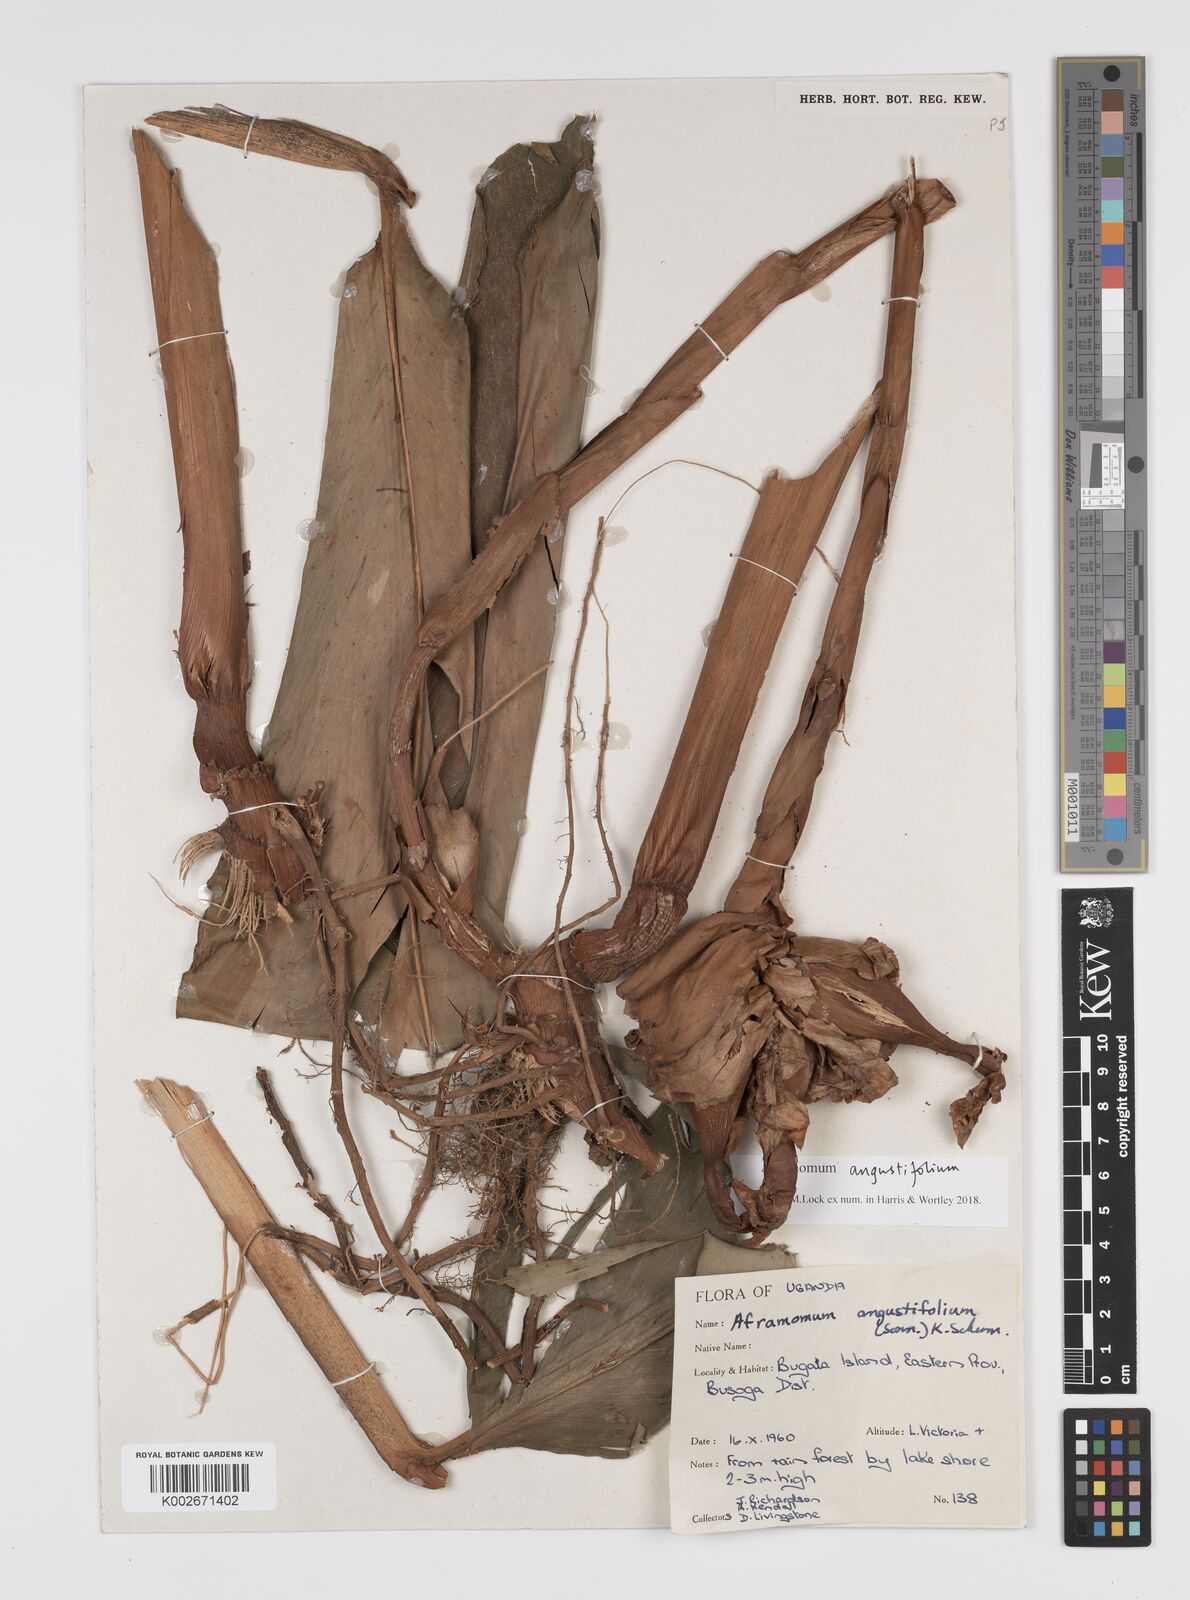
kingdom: Plantae
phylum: Tracheophyta
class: Liliopsida
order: Zingiberales
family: Zingiberaceae
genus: Aframomum
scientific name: Aframomum angustifolium
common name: Guinea grains
